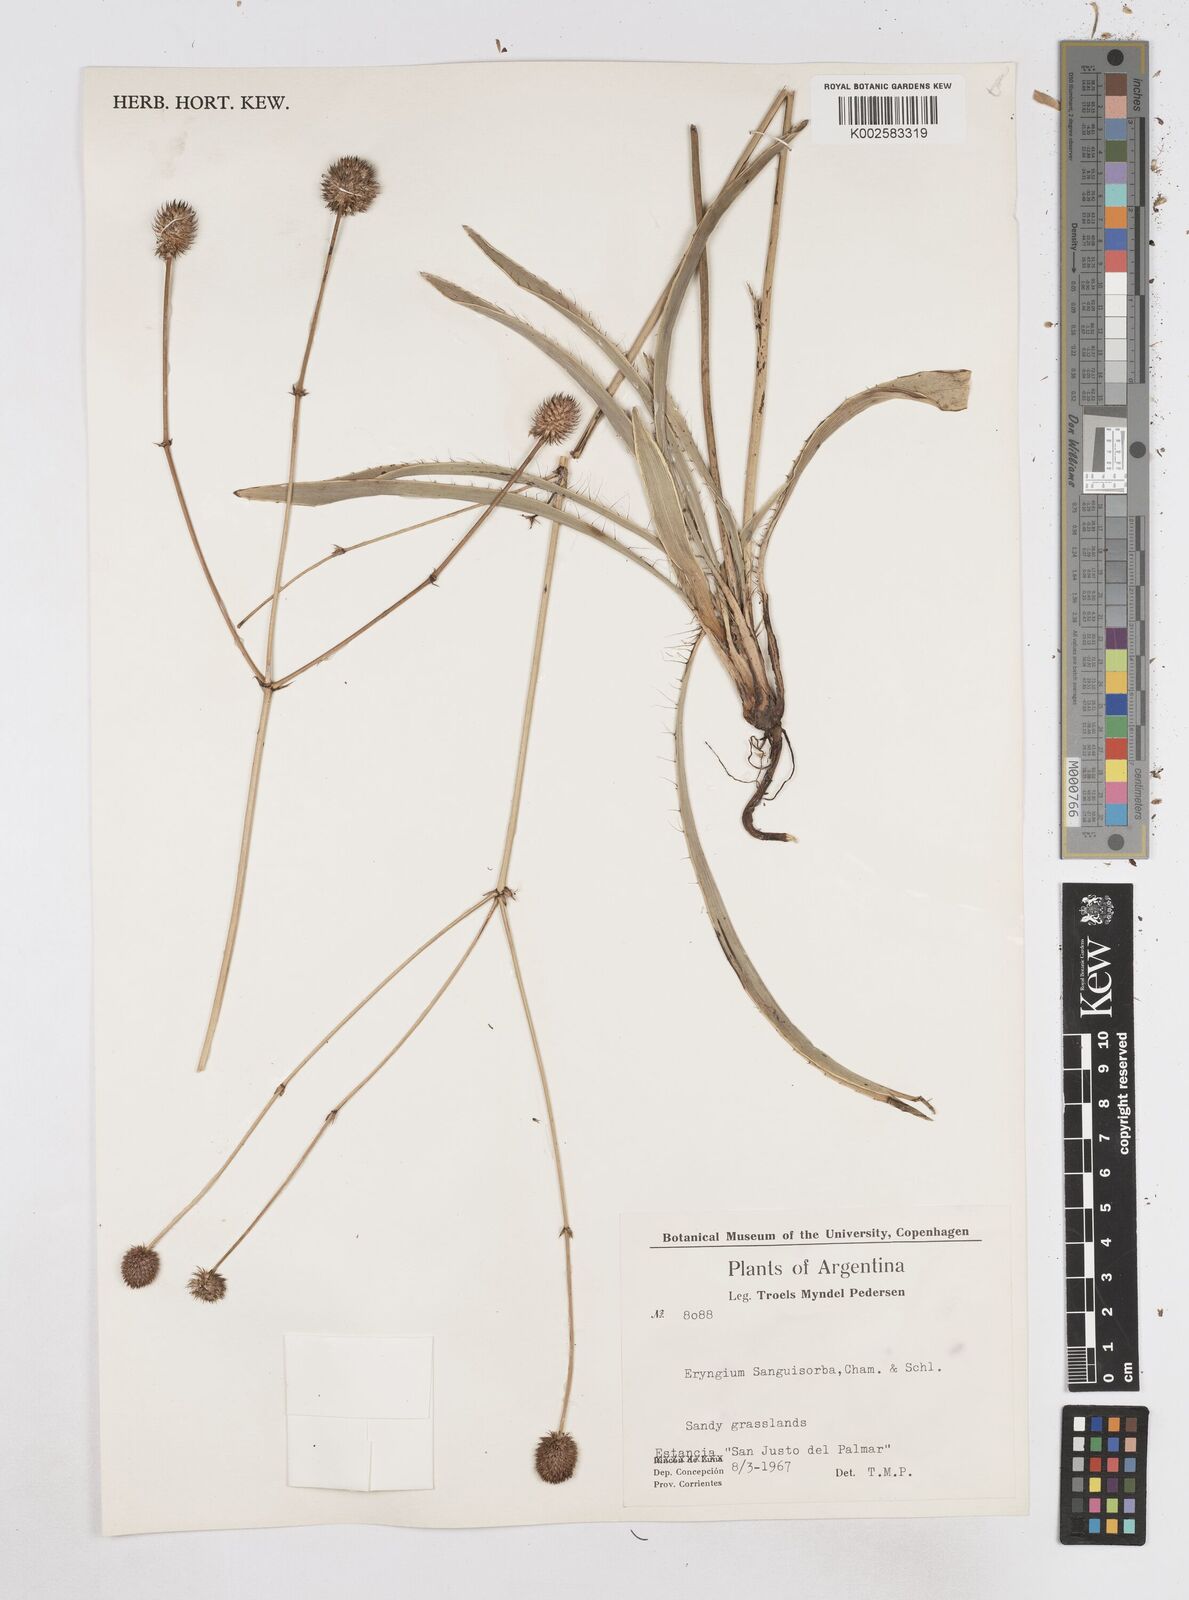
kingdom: Plantae
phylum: Tracheophyta
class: Magnoliopsida
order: Apiales
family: Apiaceae
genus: Eryngium
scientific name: Eryngium sanguisorba
